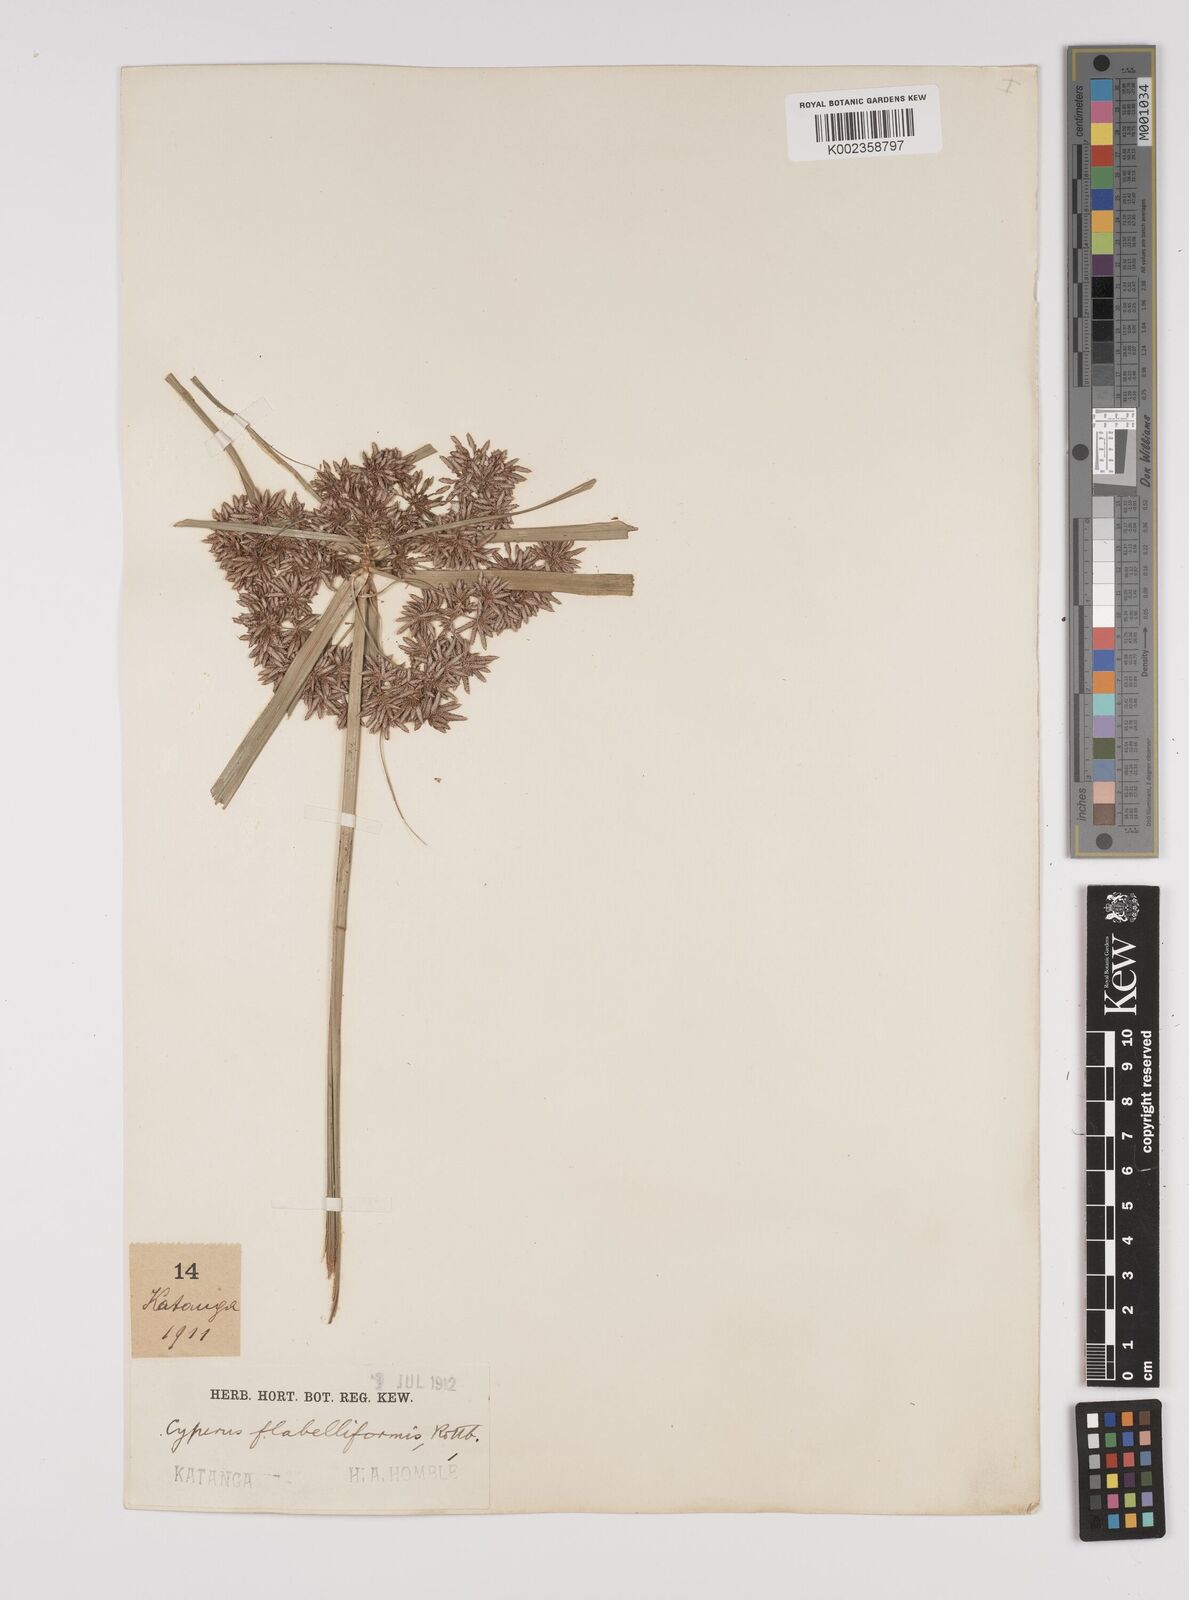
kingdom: Plantae
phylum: Tracheophyta
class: Liliopsida
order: Poales
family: Cyperaceae
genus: Cyperus
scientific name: Cyperus alternifolius
